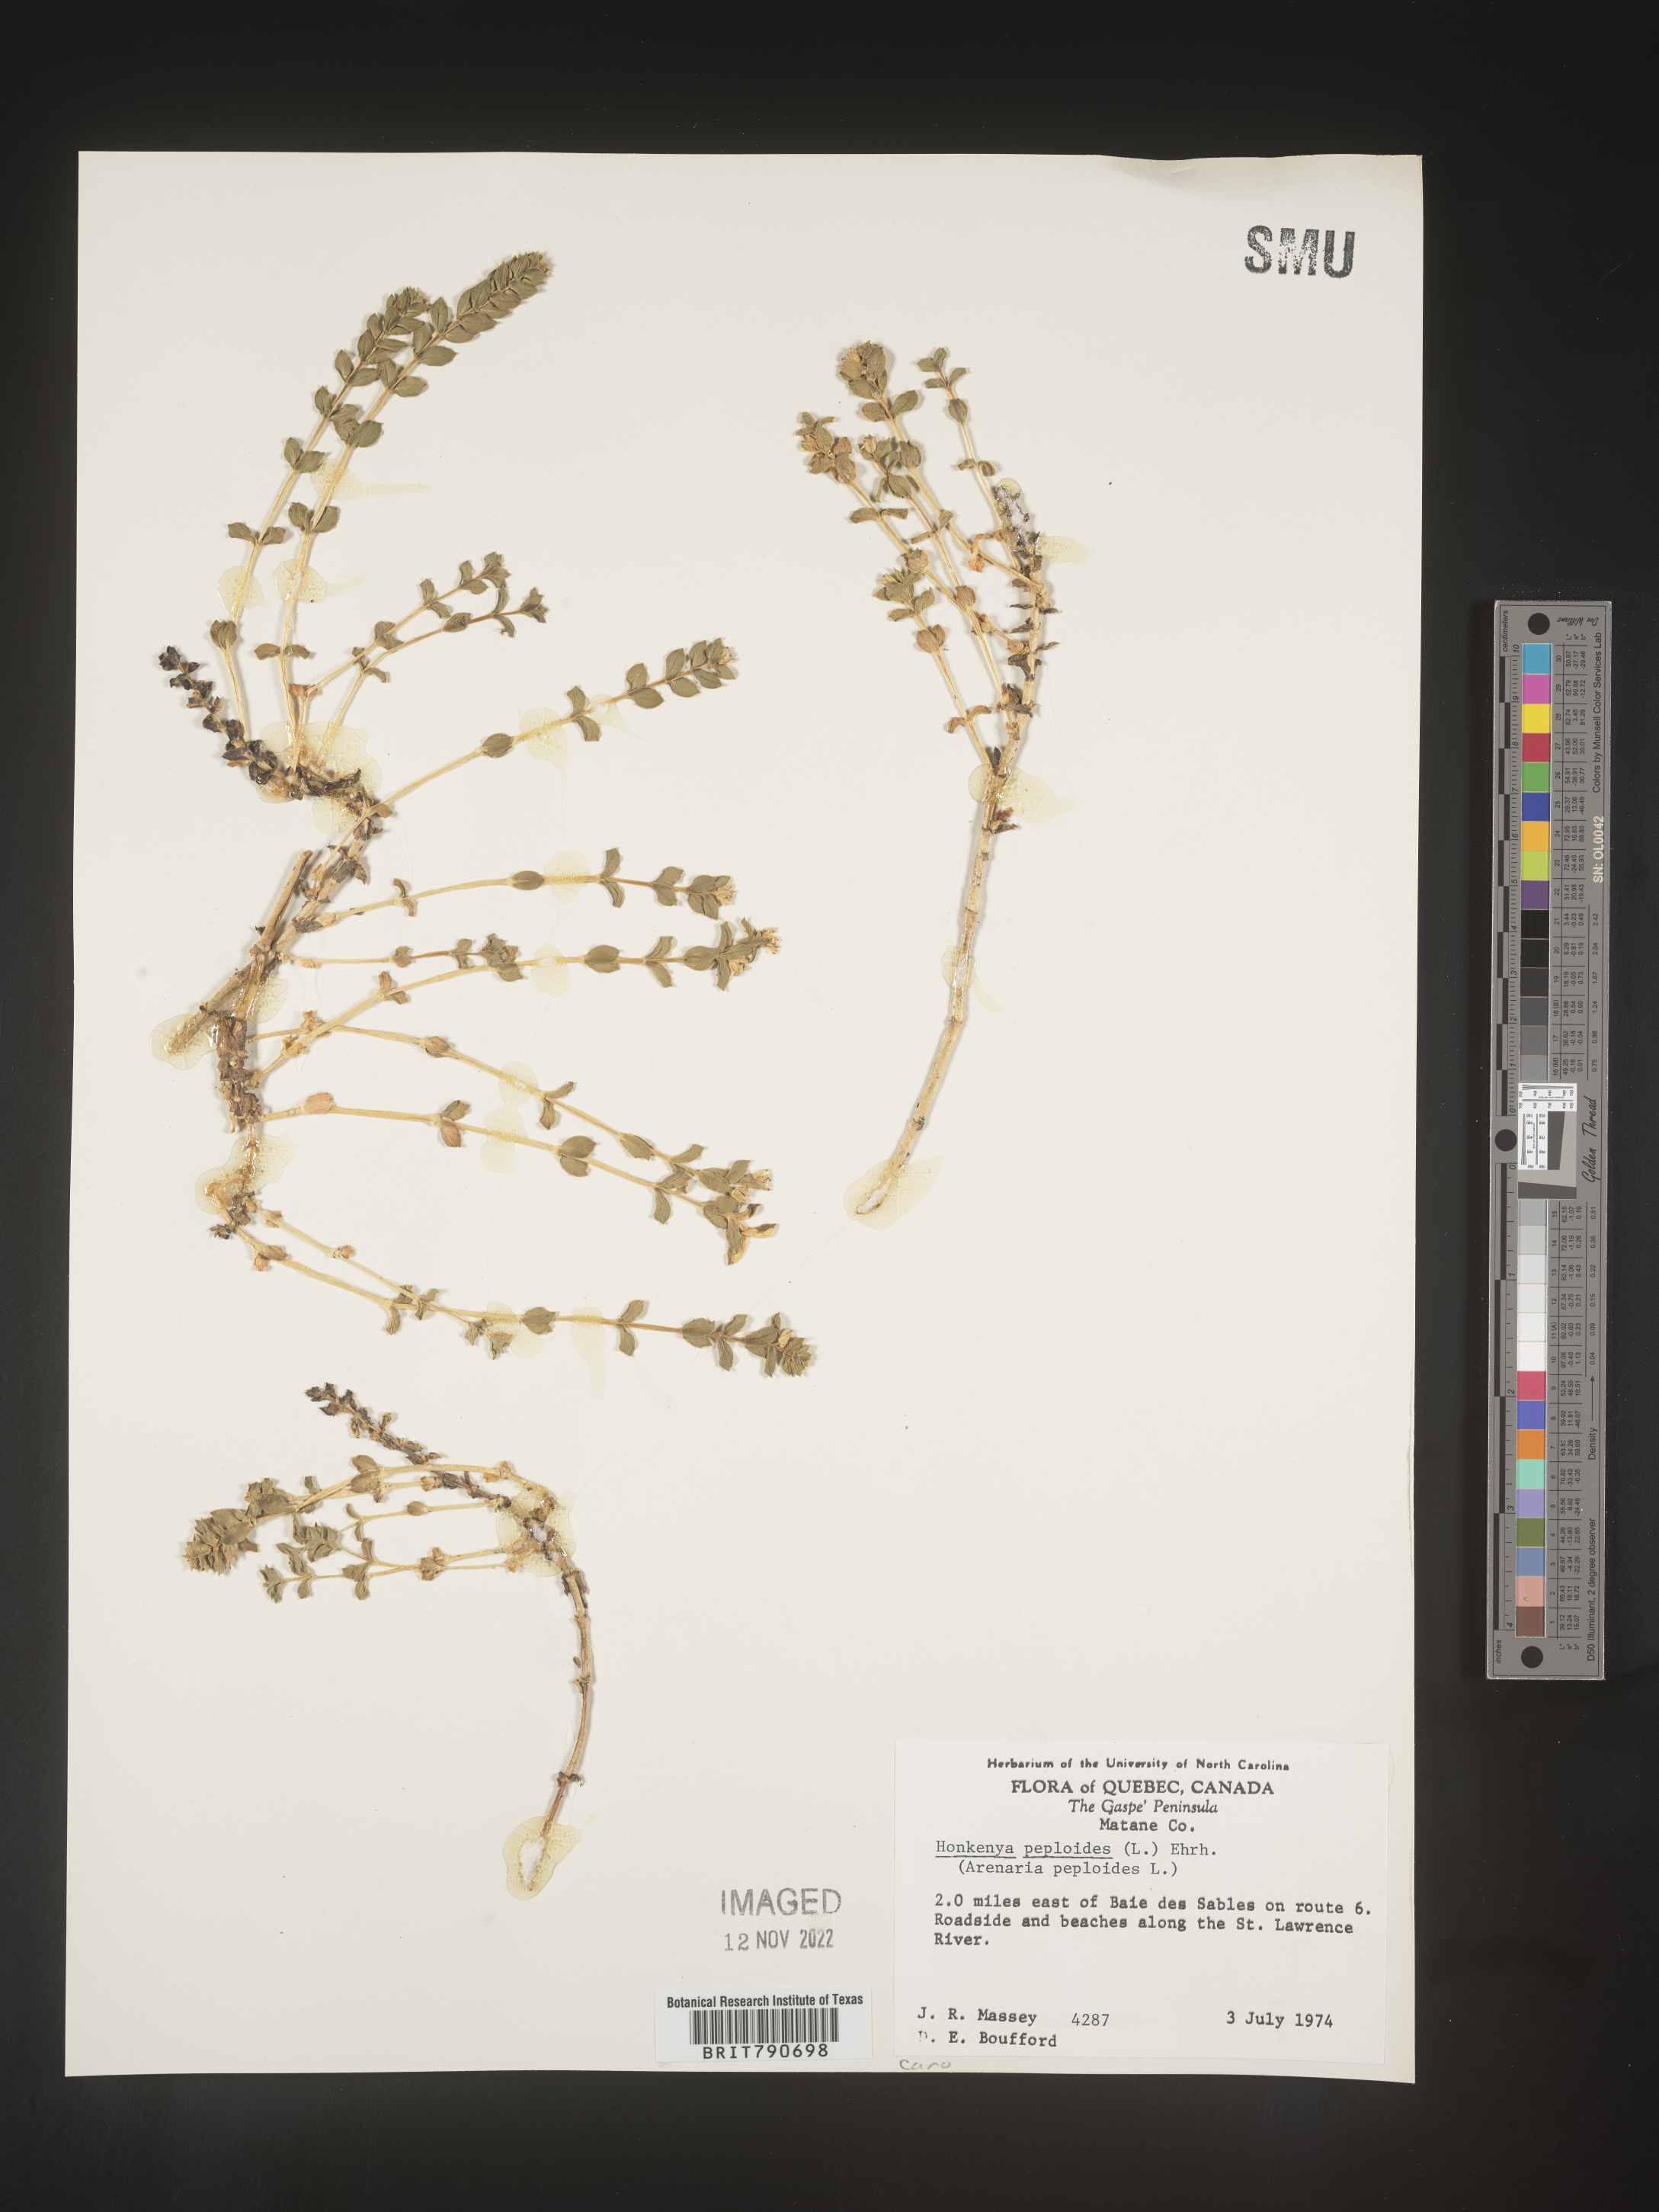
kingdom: Plantae
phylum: Tracheophyta
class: Magnoliopsida
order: Malvales
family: Malvaceae
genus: Clappertonia
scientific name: Clappertonia
